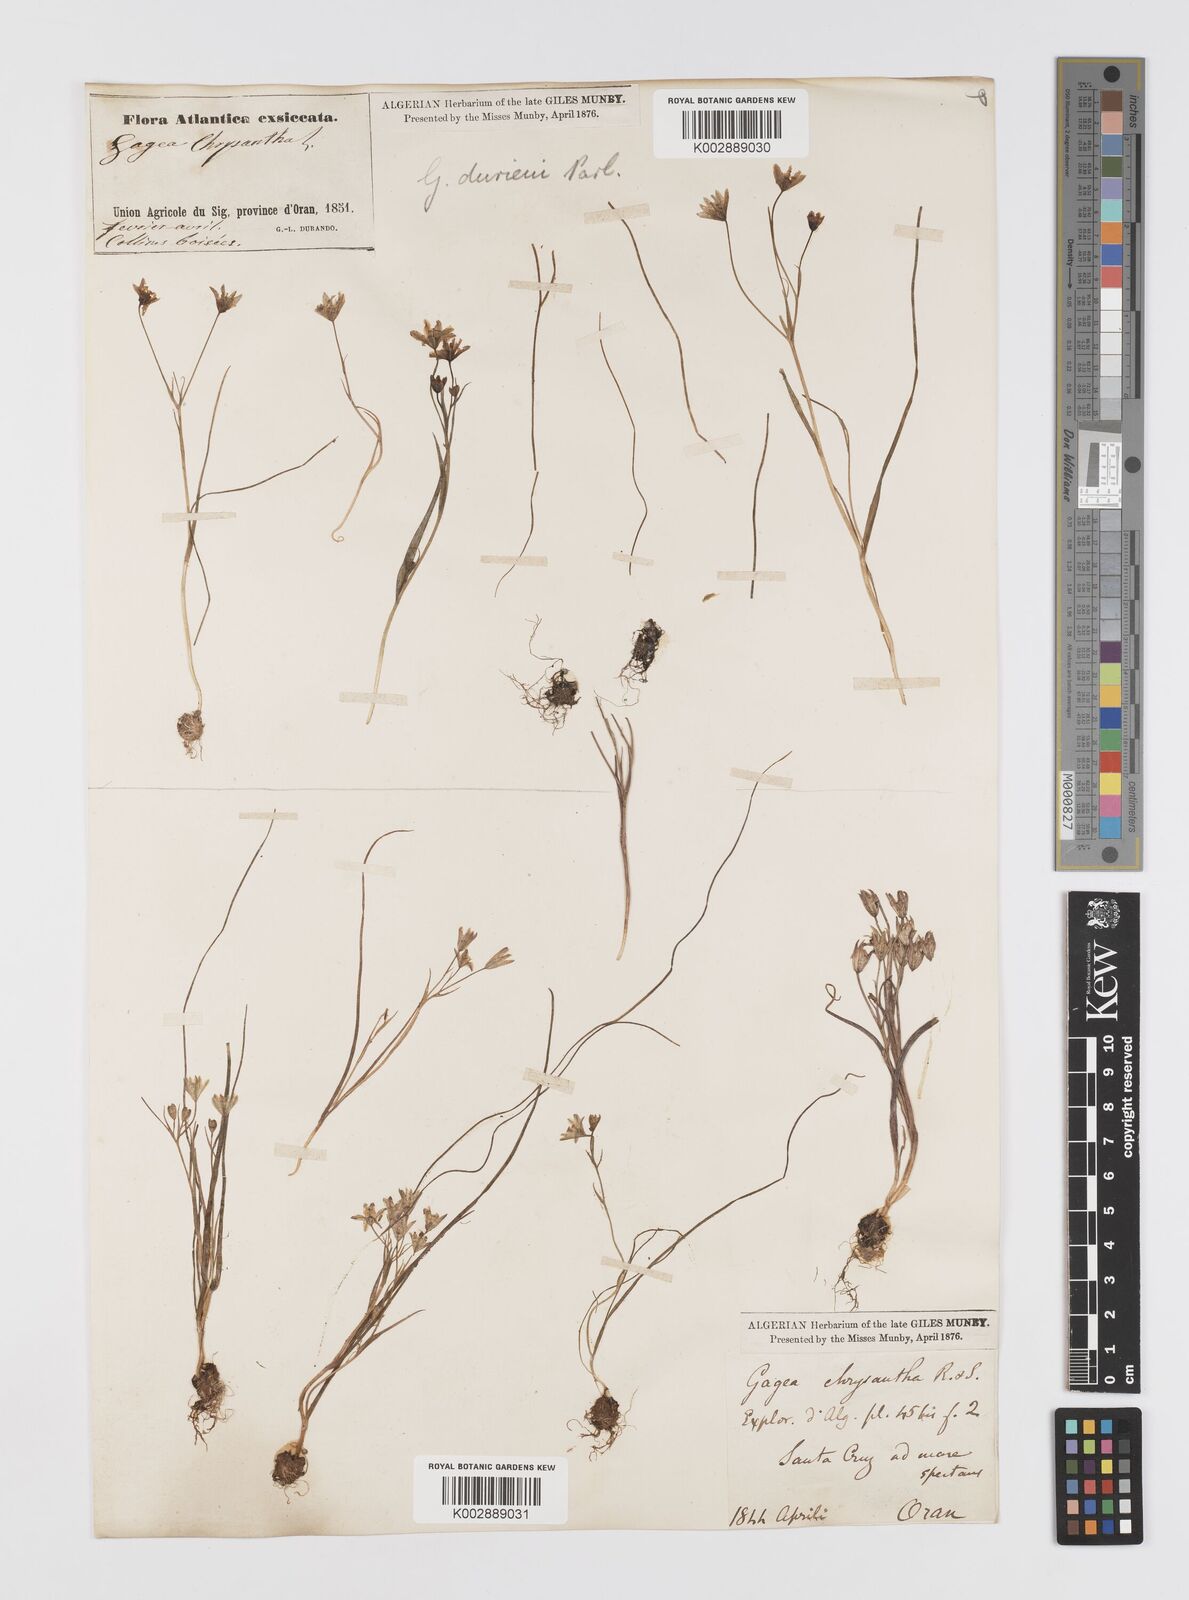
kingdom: Plantae
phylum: Tracheophyta
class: Liliopsida
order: Liliales
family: Liliaceae
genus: Gagea
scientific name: Gagea durieui
